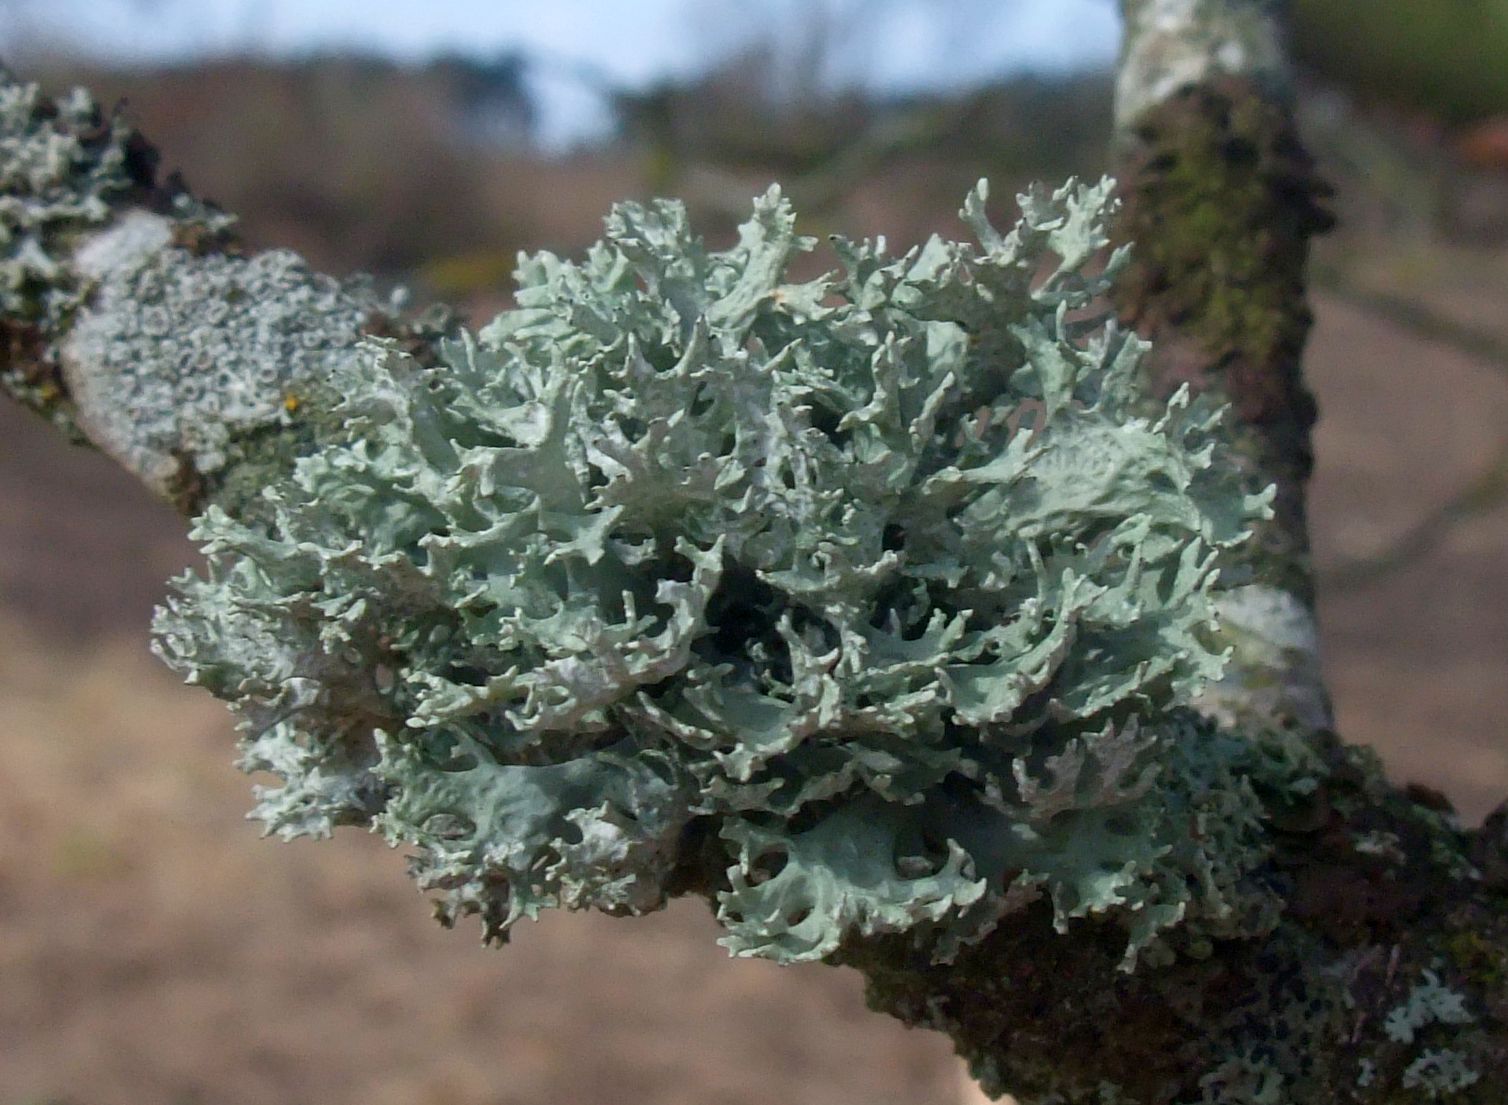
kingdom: Fungi
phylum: Ascomycota
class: Lecanoromycetes
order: Lecanorales
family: Parmeliaceae
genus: Evernia
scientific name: Evernia prunastri
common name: almindelig slåenlav
